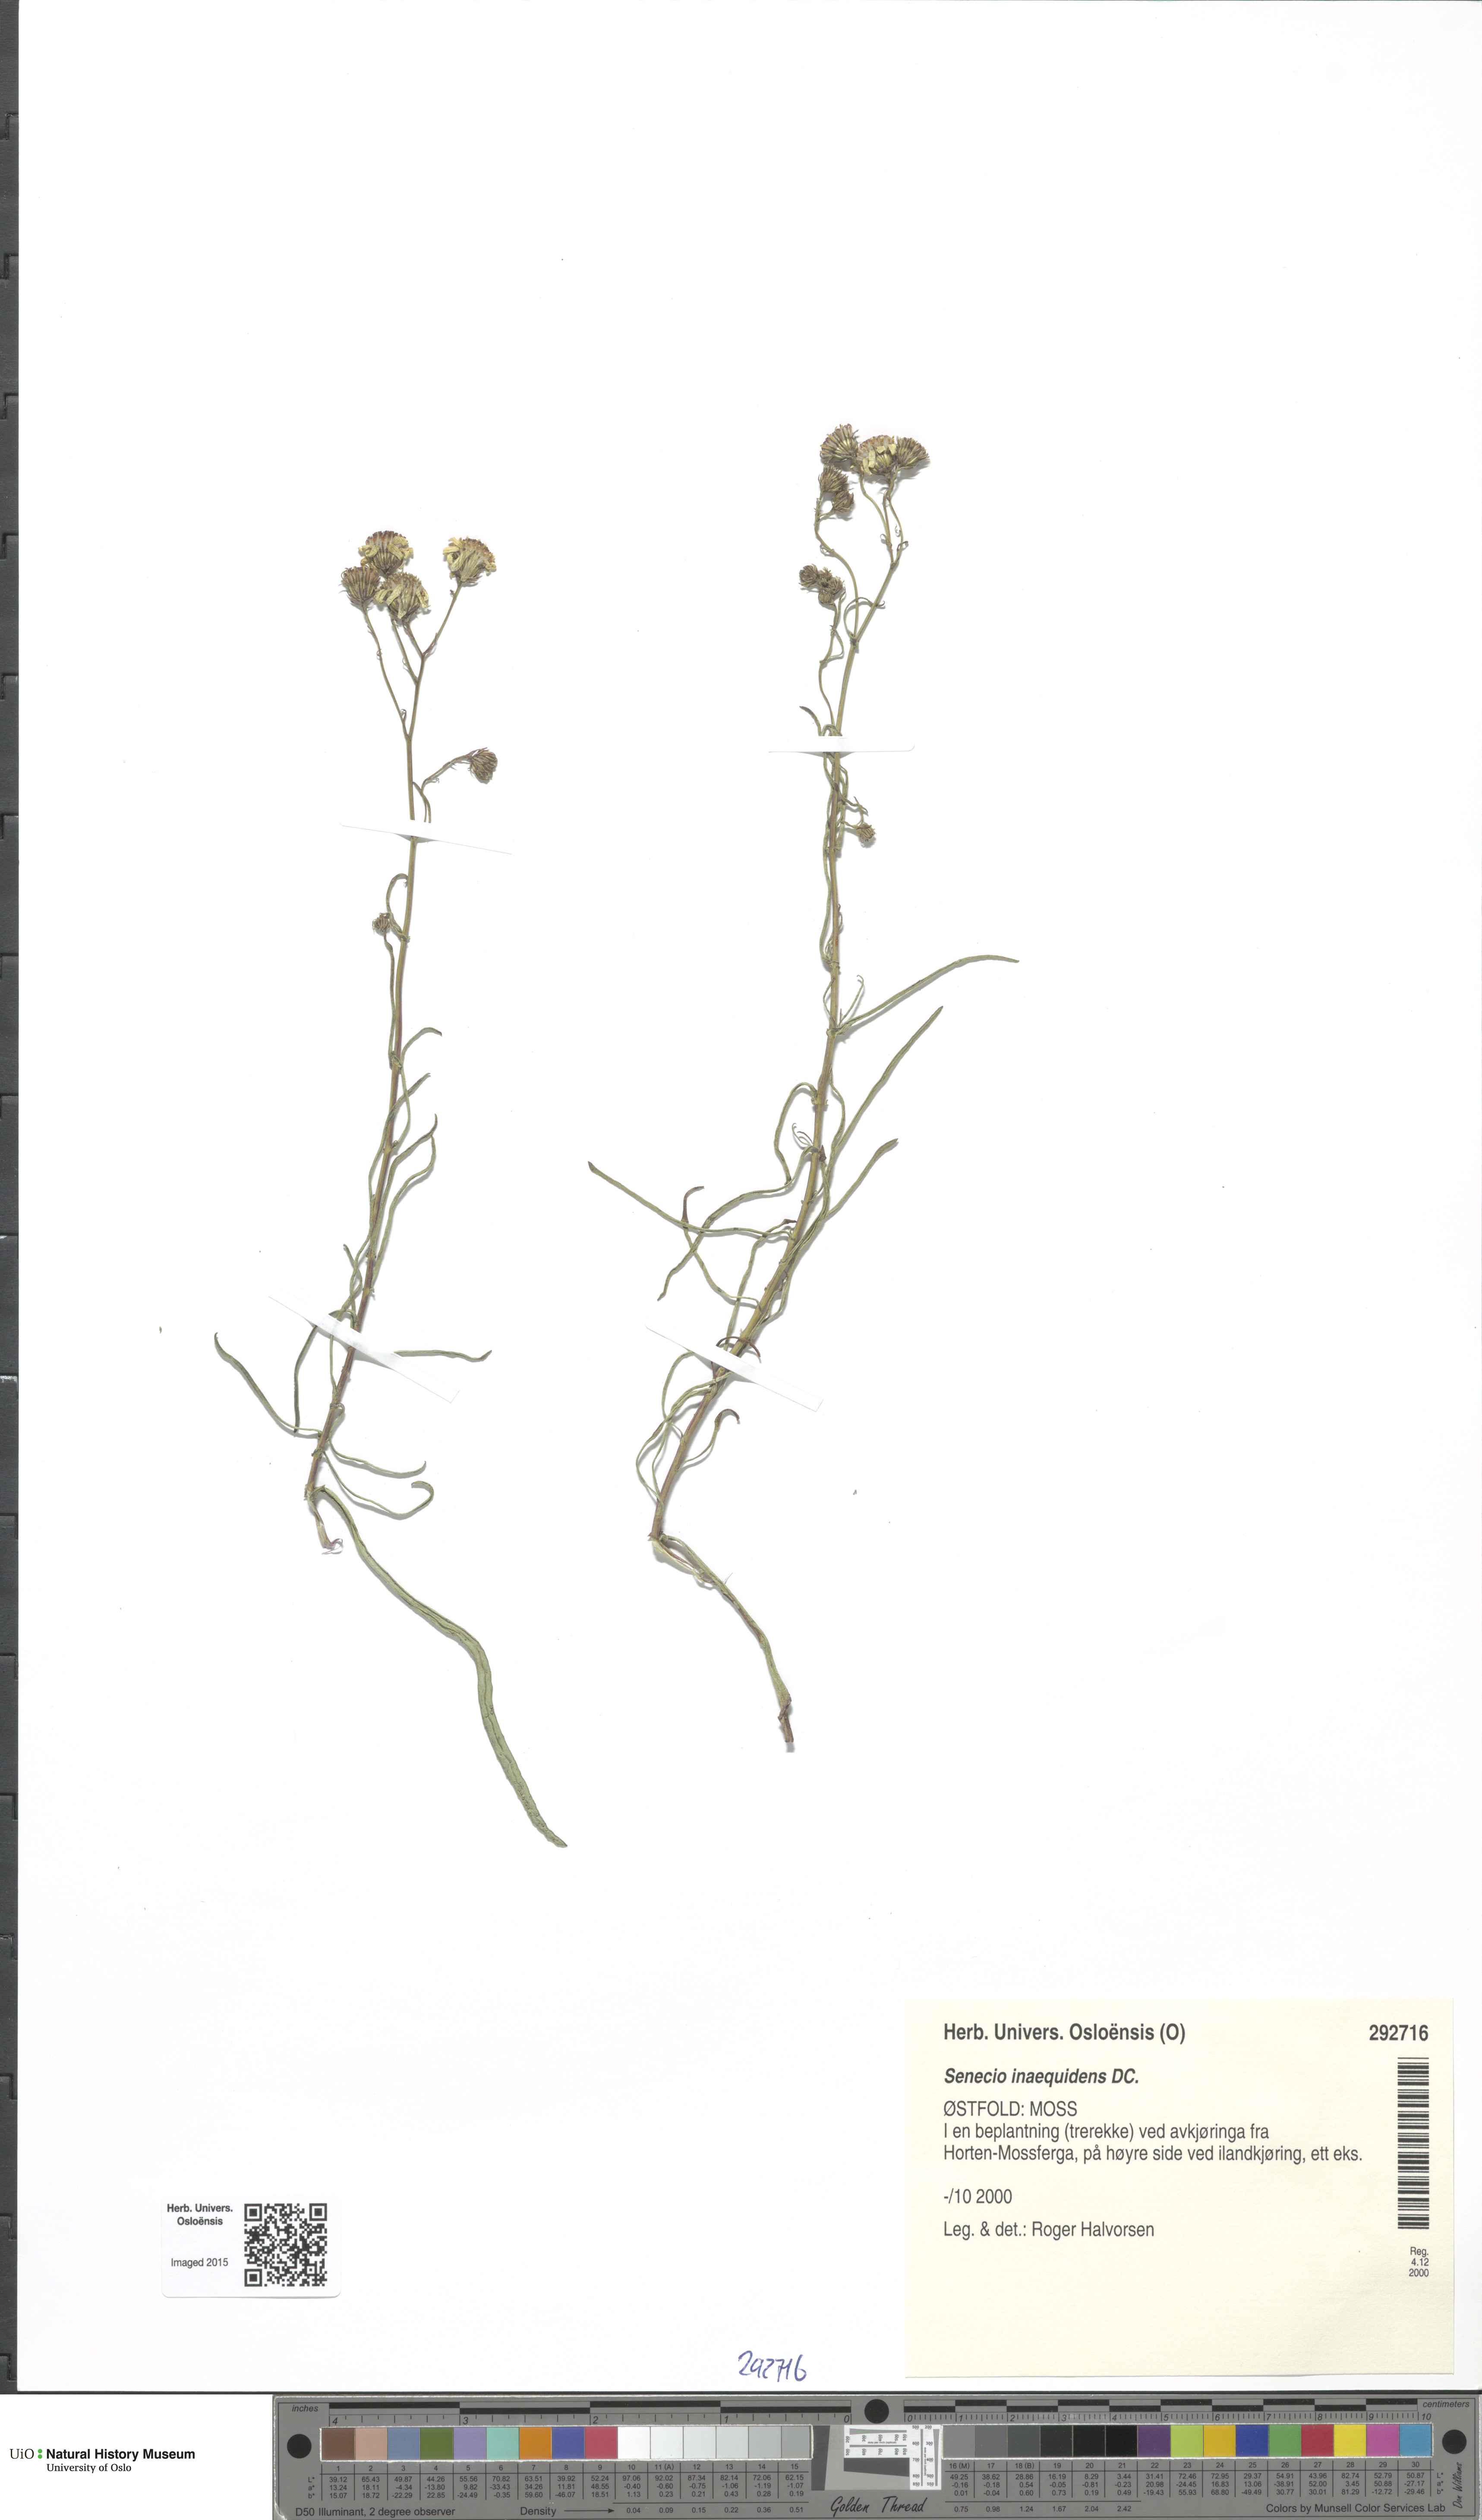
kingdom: Plantae
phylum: Tracheophyta
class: Magnoliopsida
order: Asterales
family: Asteraceae
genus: Senecio
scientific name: Senecio inaequidens
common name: Narrow-leaved ragwort
